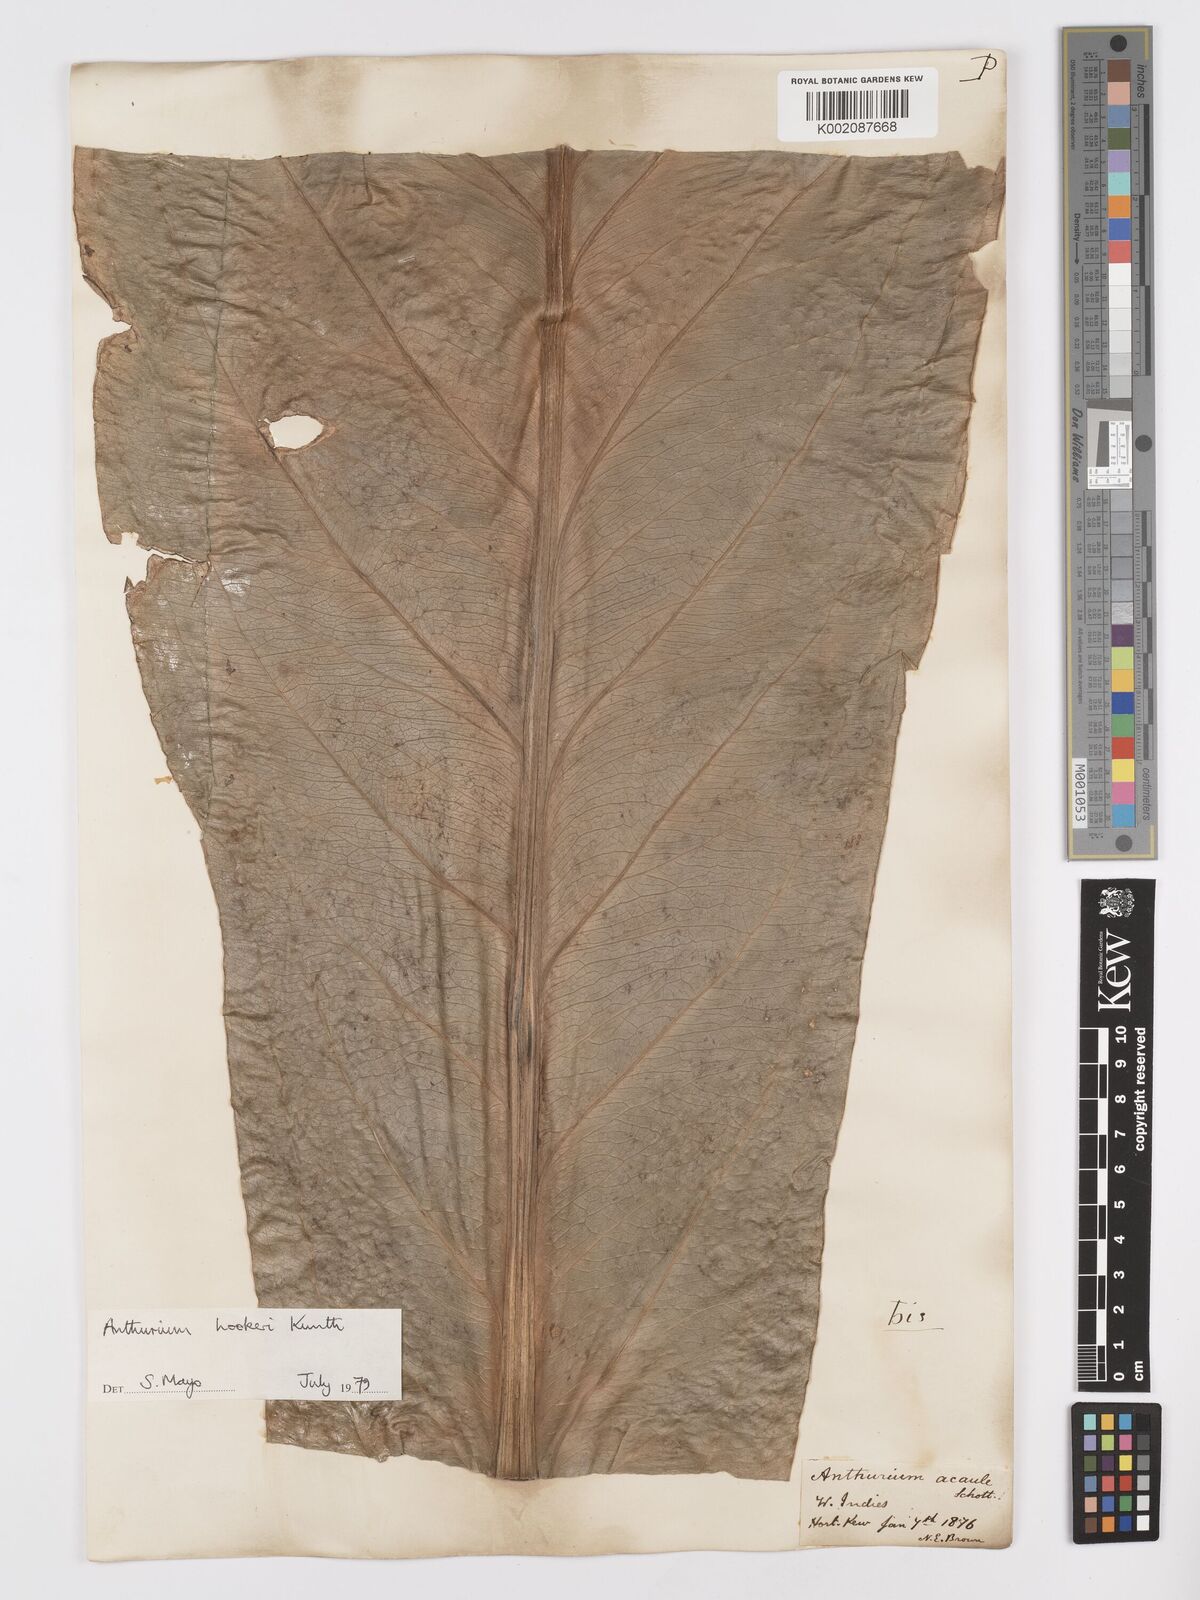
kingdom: Plantae
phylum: Tracheophyta
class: Liliopsida
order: Alismatales
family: Araceae
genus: Anthurium
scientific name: Anthurium hookeri
